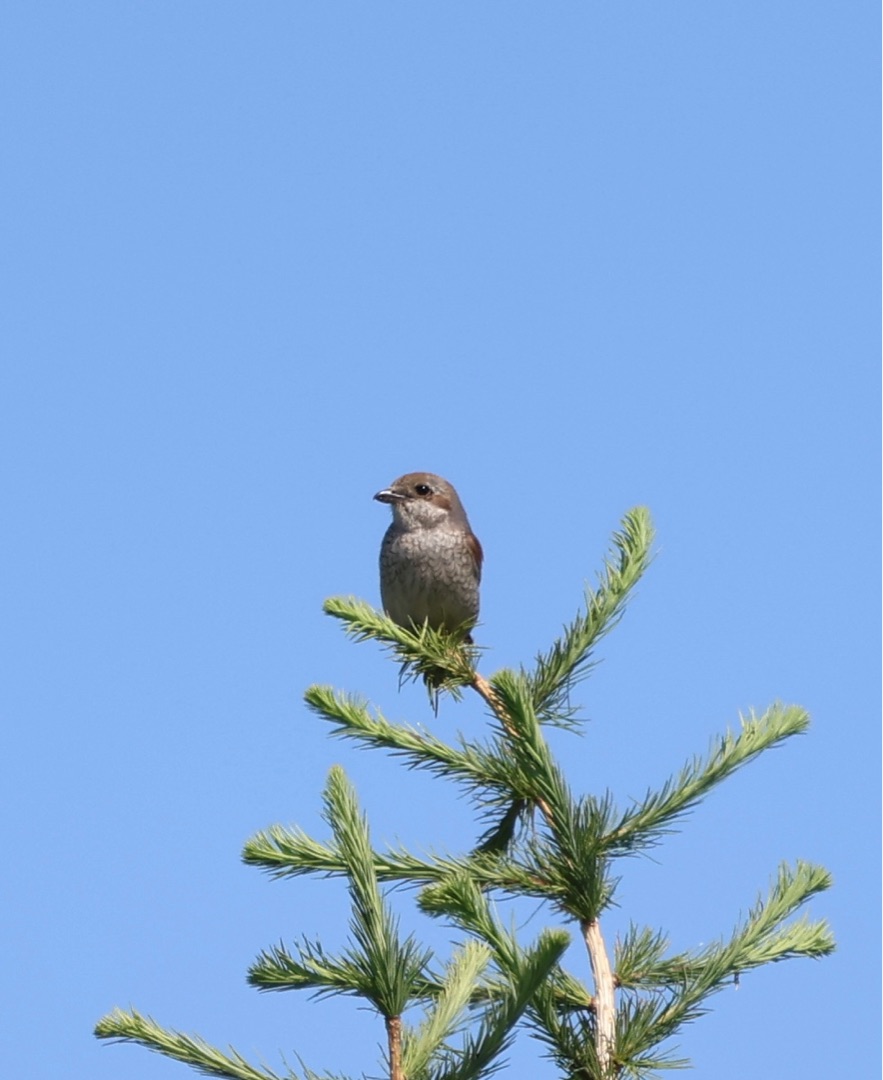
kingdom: Animalia
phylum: Chordata
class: Aves
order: Passeriformes
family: Laniidae
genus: Lanius
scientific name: Lanius collurio
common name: Rødrygget tornskade
